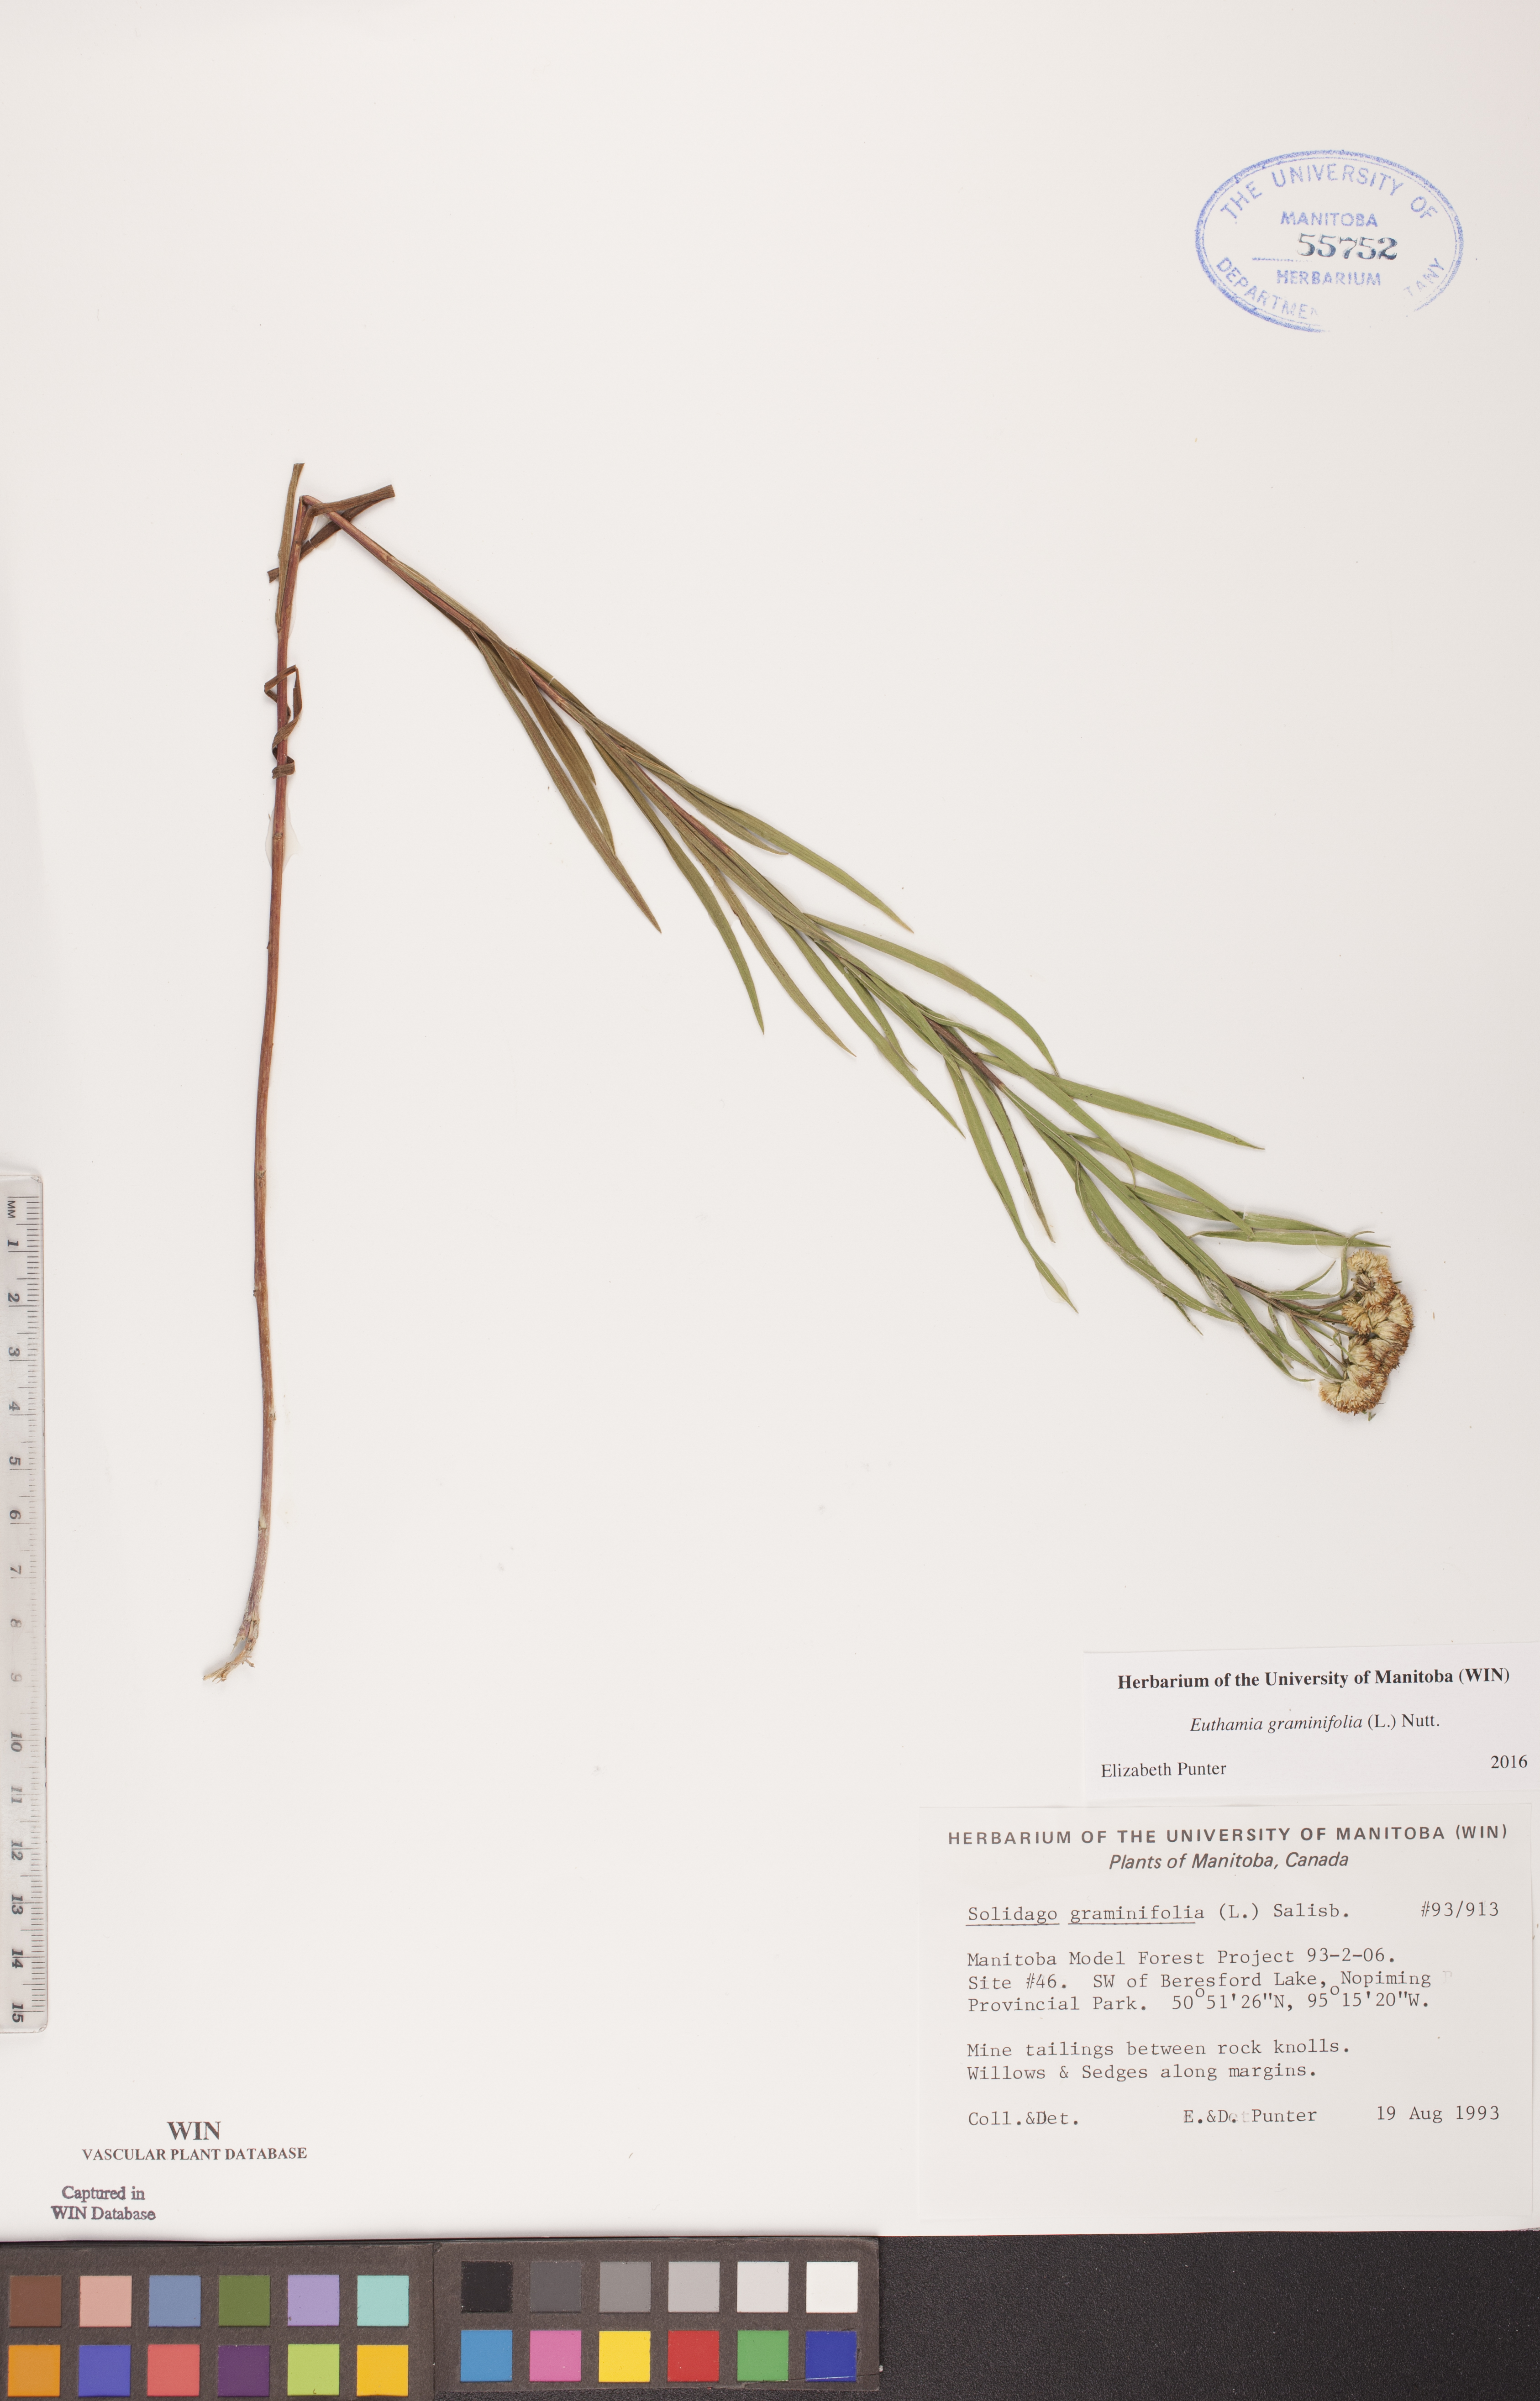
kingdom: Plantae
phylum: Tracheophyta
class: Magnoliopsida
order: Asterales
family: Asteraceae
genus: Euthamia
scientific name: Euthamia graminifolia
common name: Common goldentop
